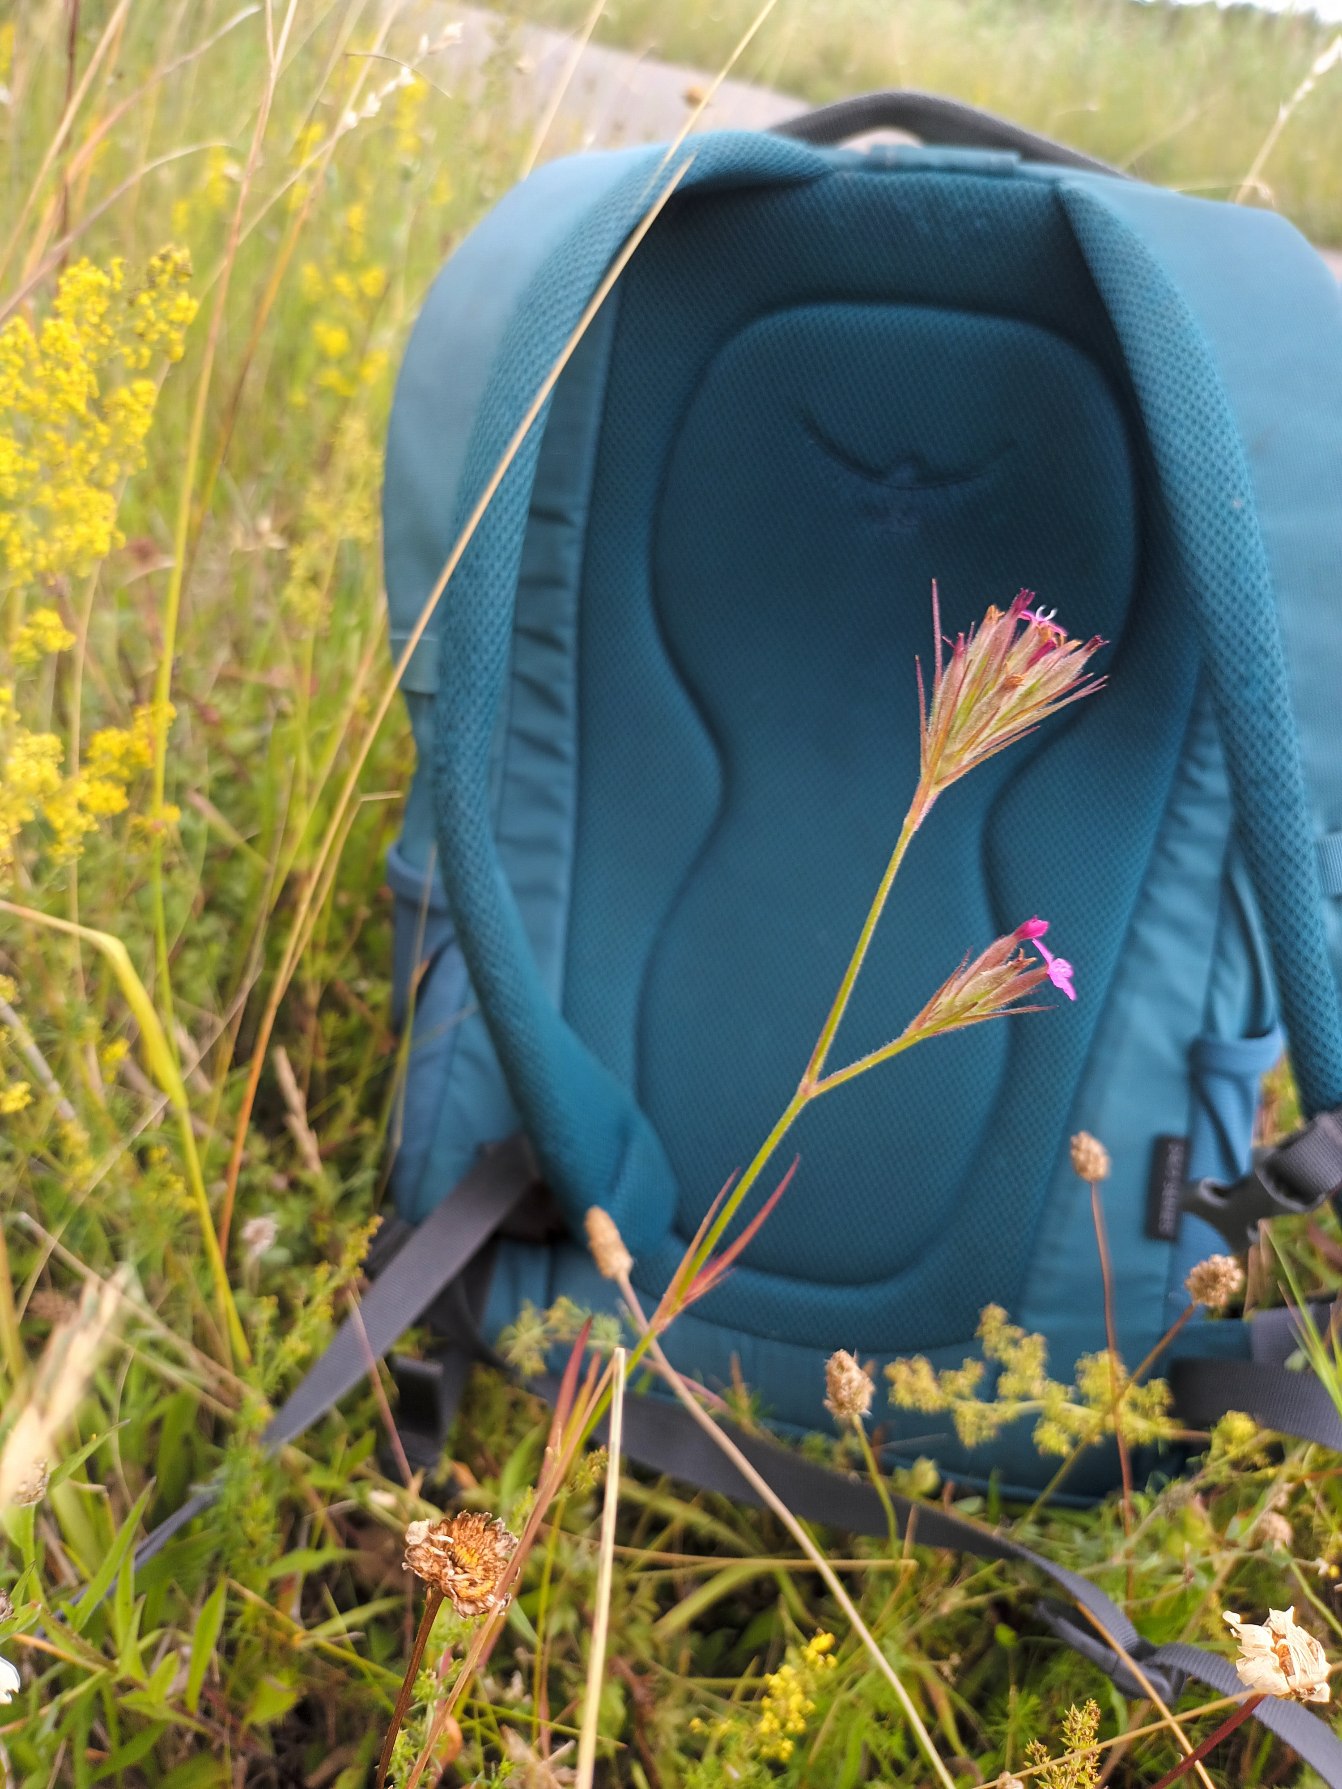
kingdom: Plantae
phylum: Tracheophyta
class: Magnoliopsida
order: Caryophyllales
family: Caryophyllaceae
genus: Dianthus
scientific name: Dianthus armeria
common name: Kost-nellike
